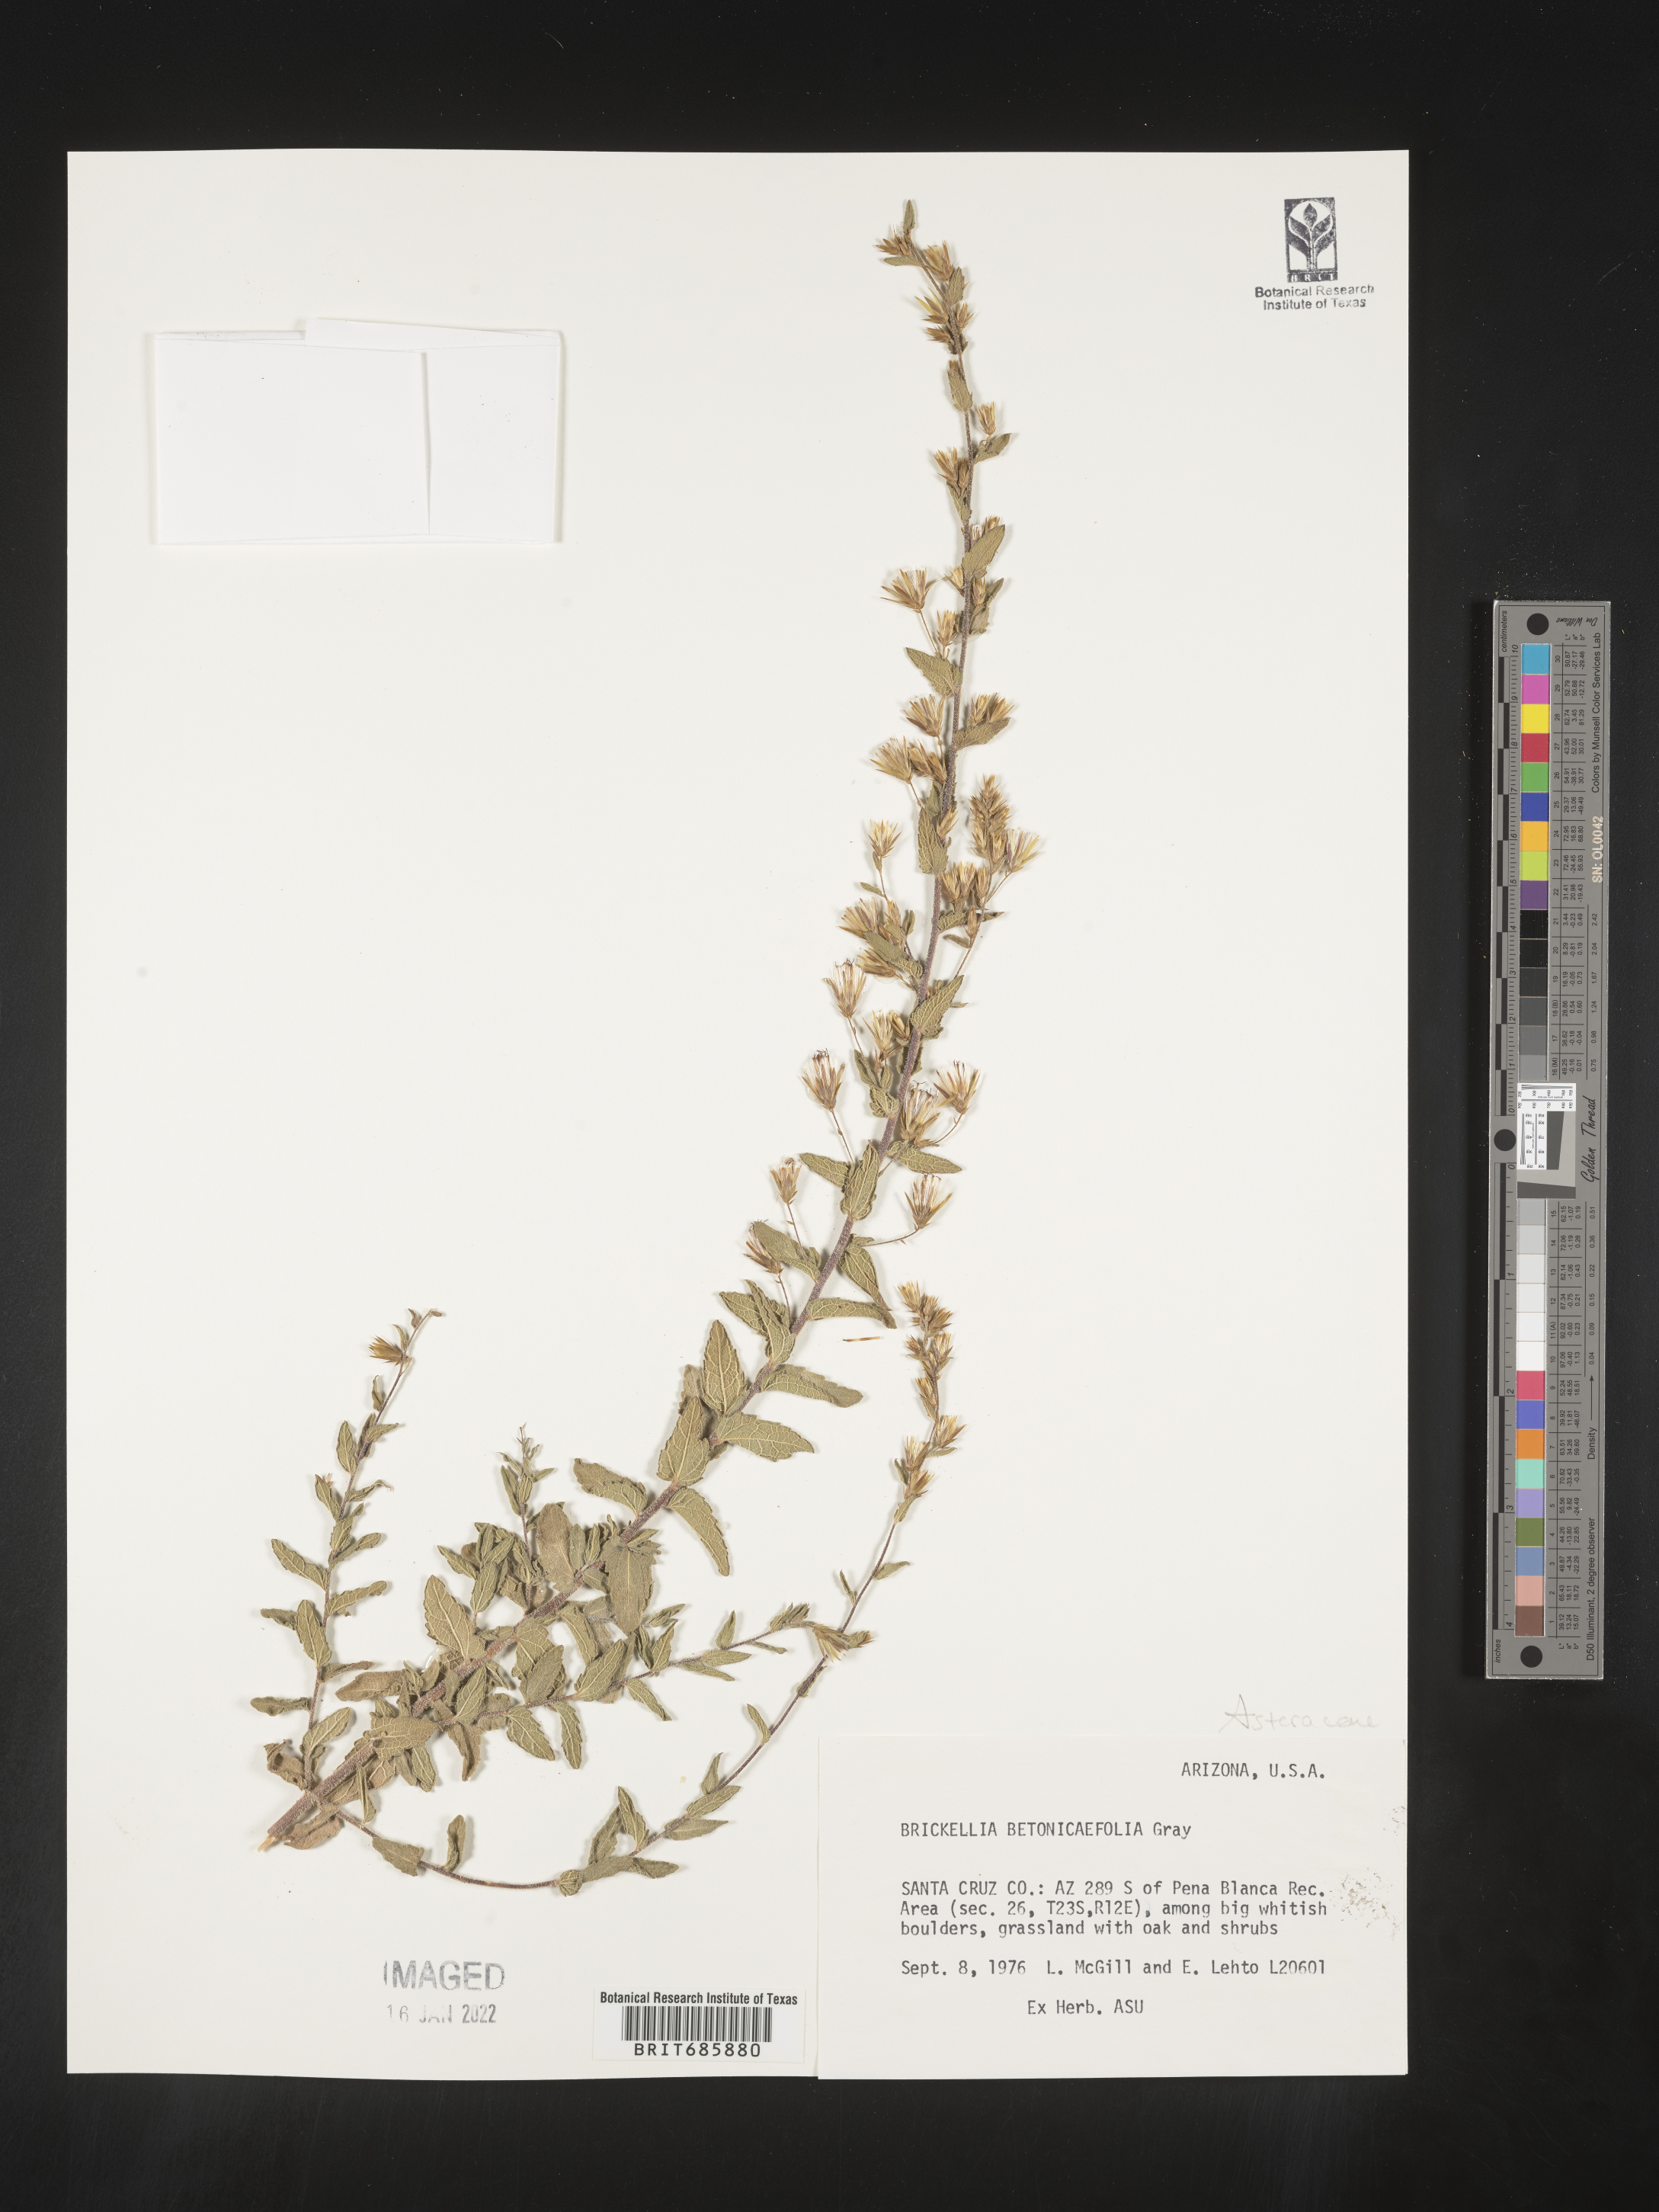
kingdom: Plantae
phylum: Tracheophyta
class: Magnoliopsida
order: Asterales
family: Asteraceae
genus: Brickellia
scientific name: Brickellia betonicifolia
